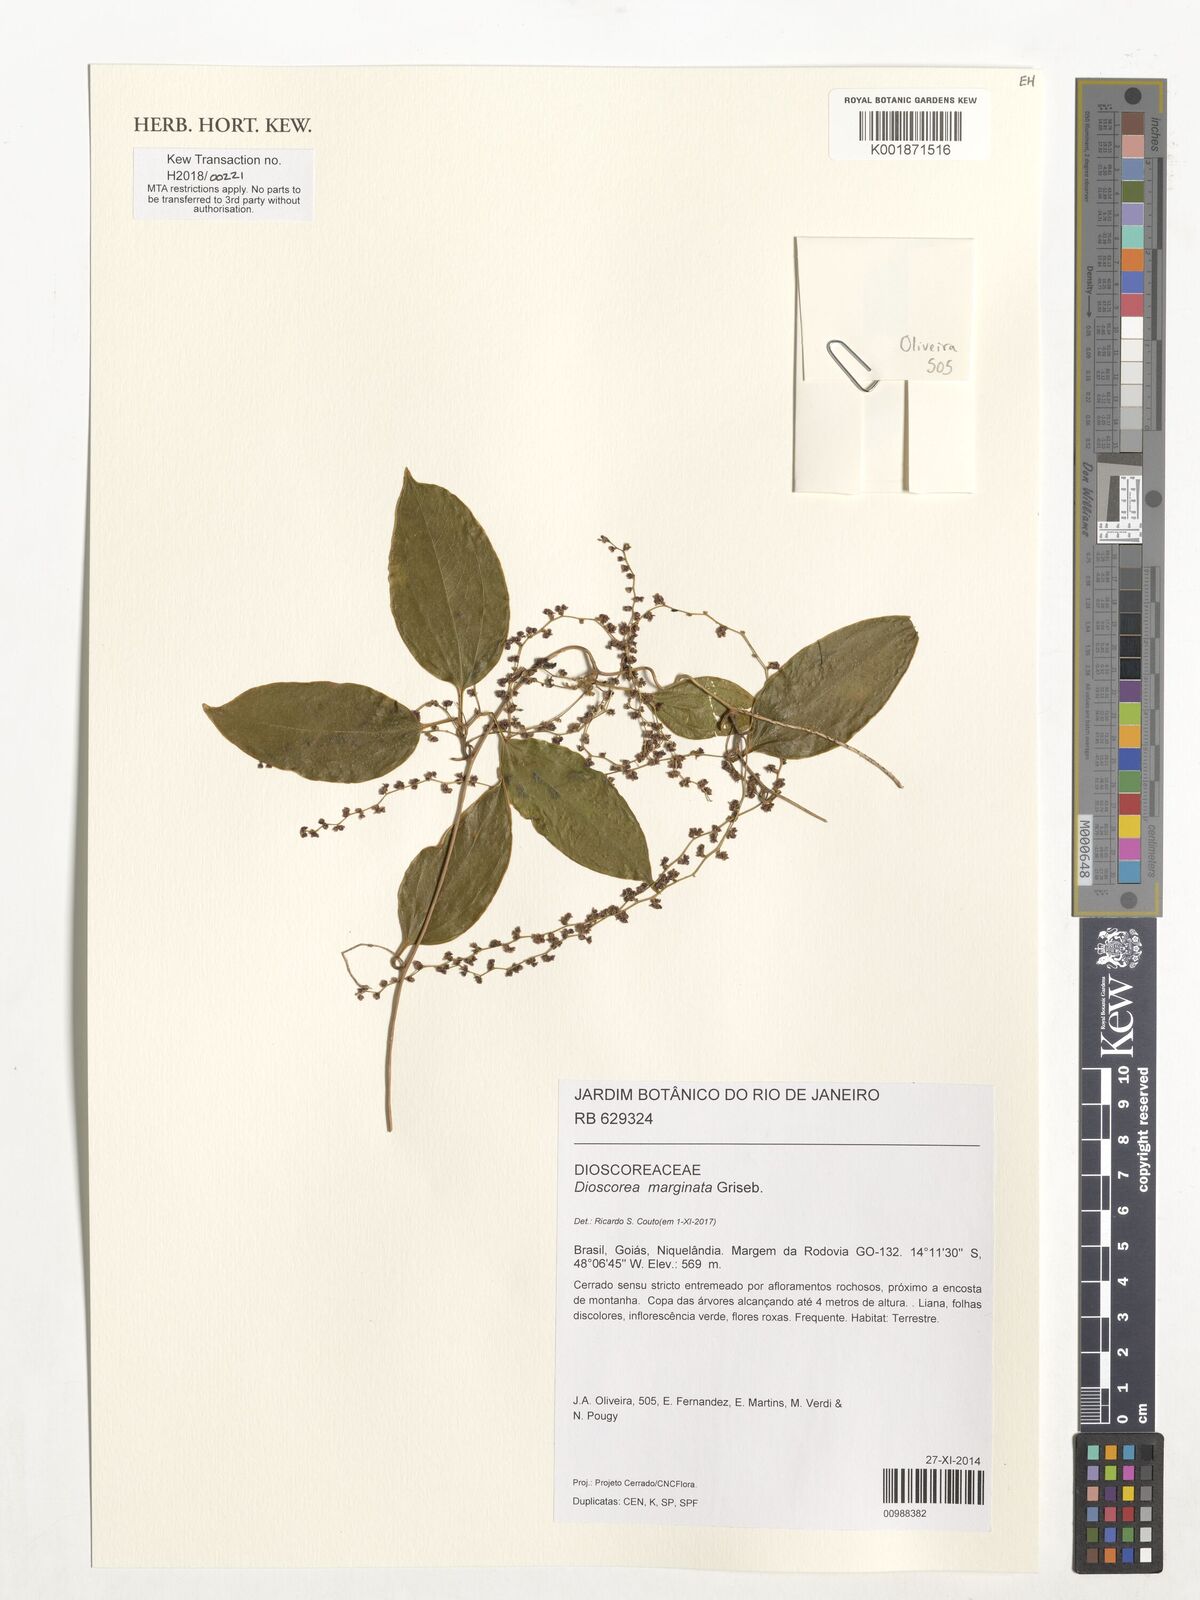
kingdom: Plantae
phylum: Tracheophyta
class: Liliopsida
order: Dioscoreales
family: Dioscoreaceae
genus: Dioscorea
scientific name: Dioscorea marginata
